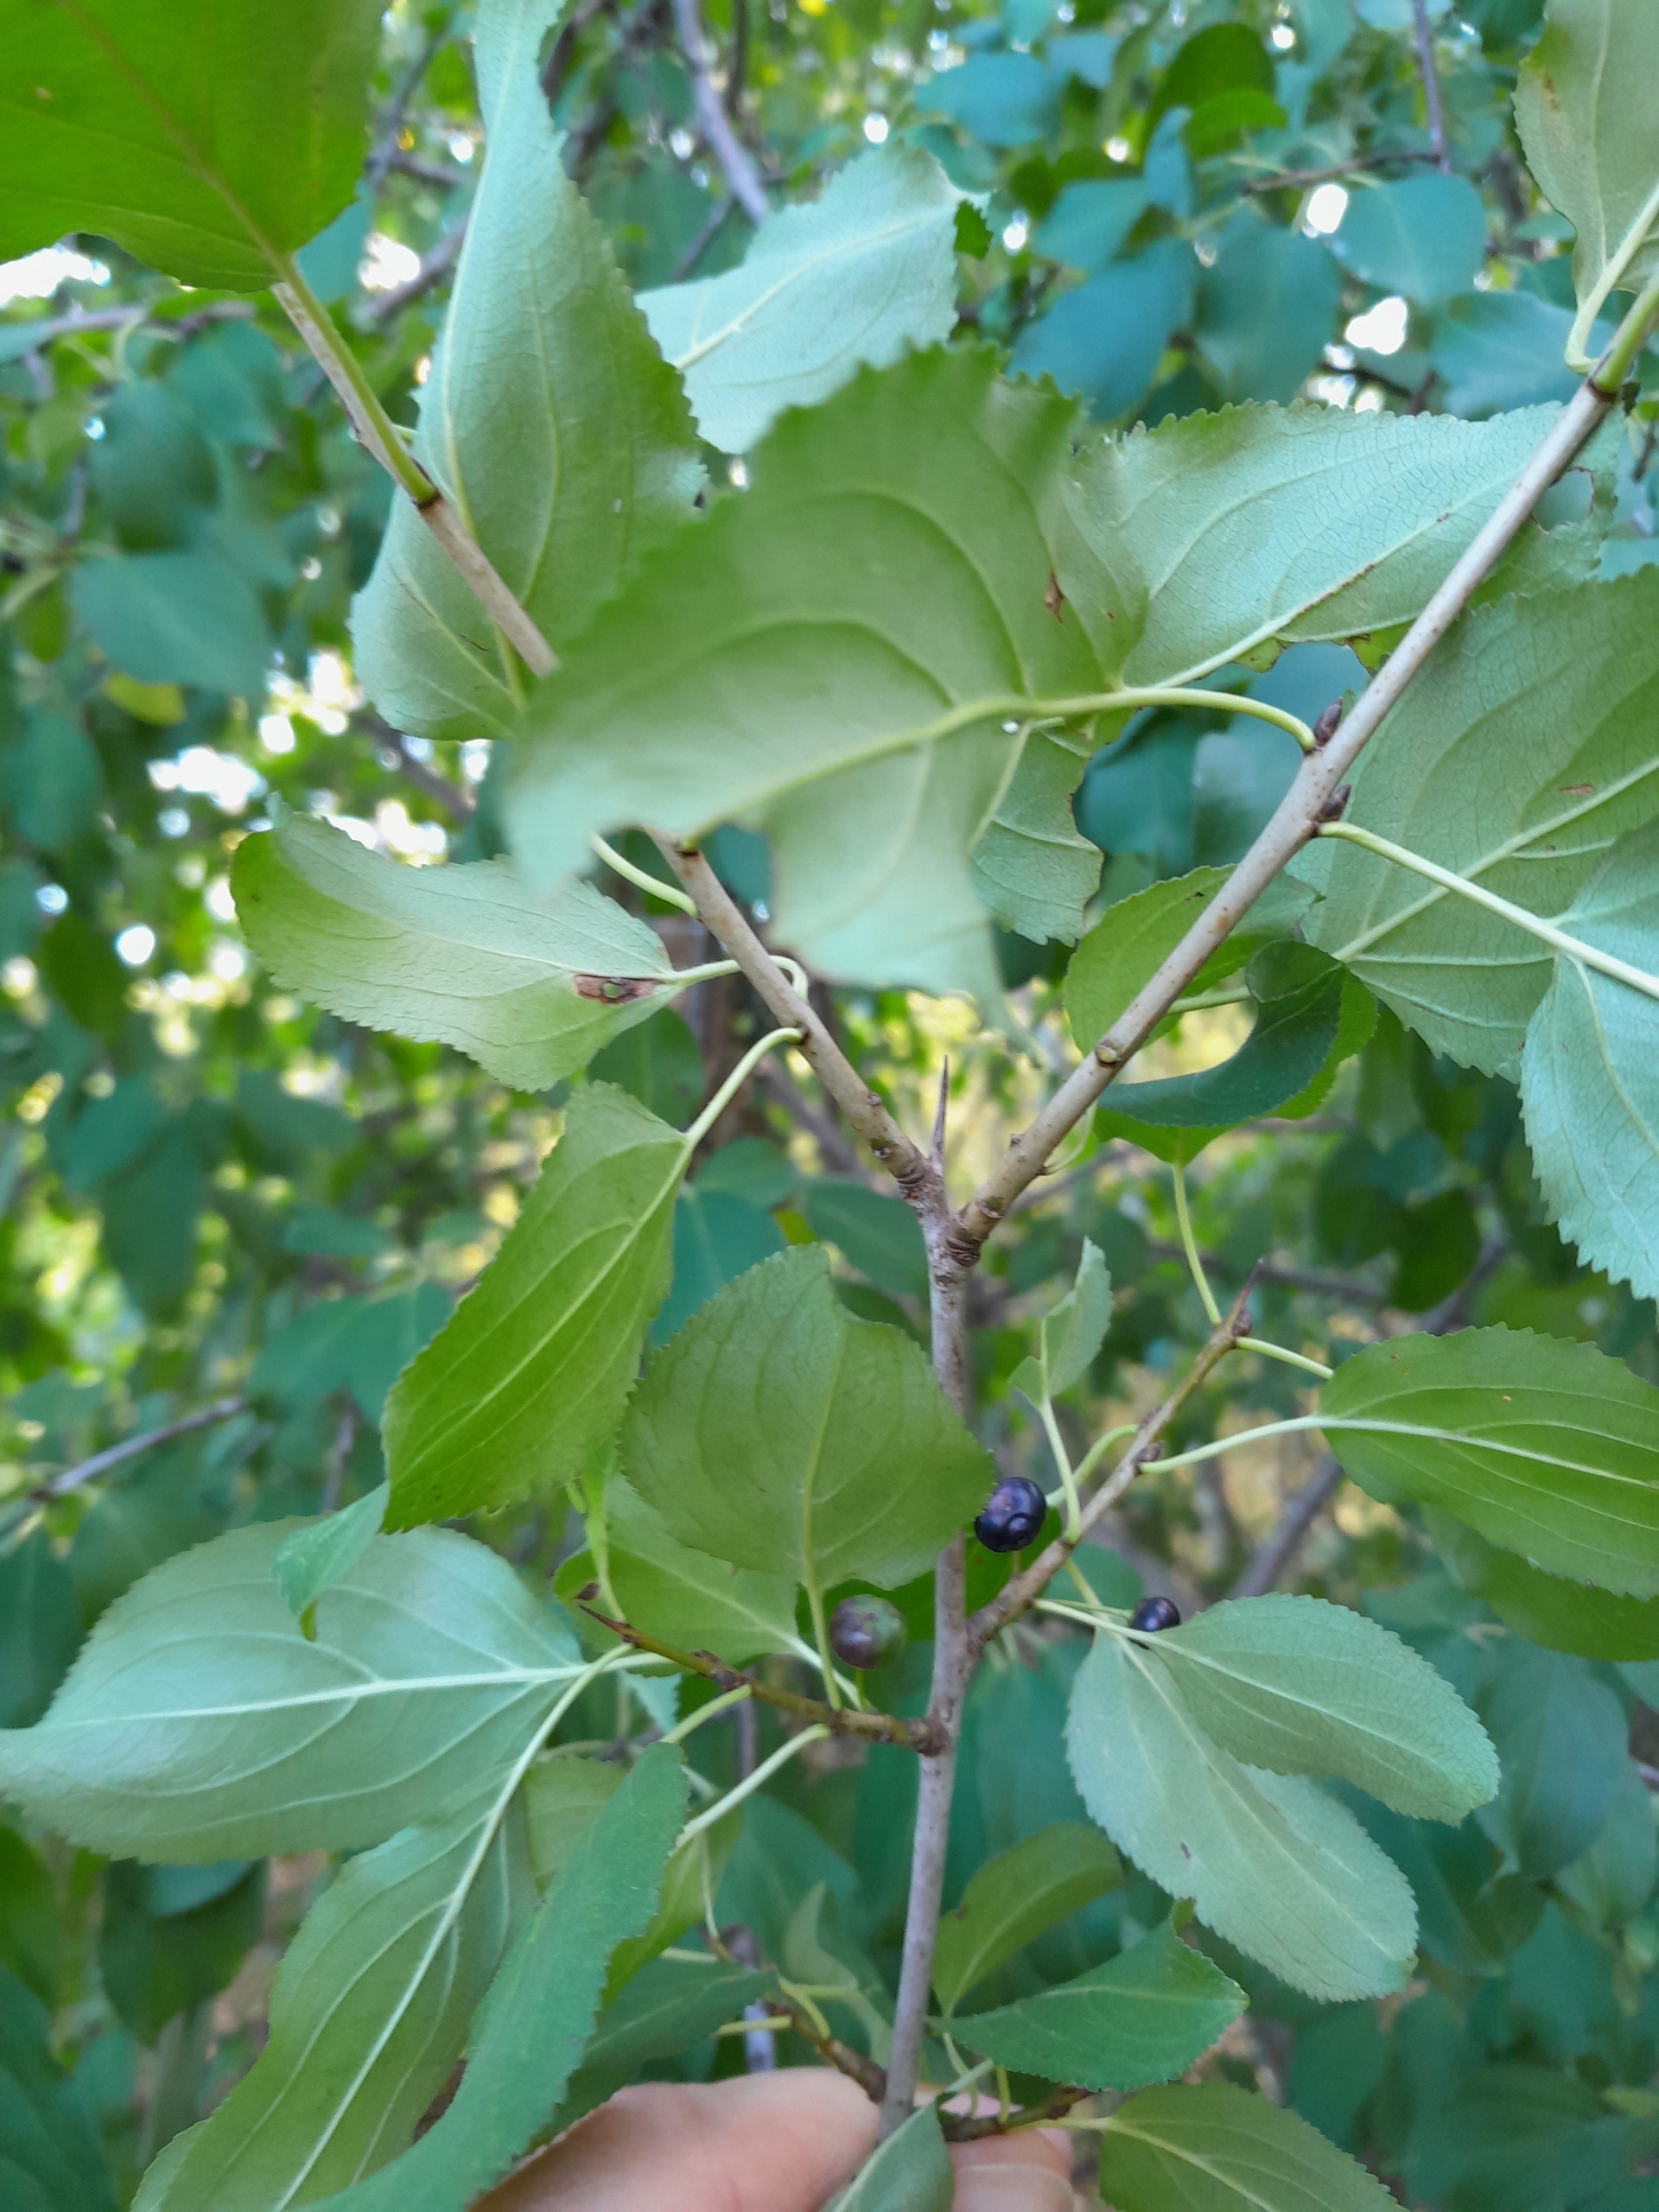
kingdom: Plantae
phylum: Tracheophyta
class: Magnoliopsida
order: Rosales
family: Rhamnaceae
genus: Rhamnus
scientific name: Rhamnus cathartica
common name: Vrietorn
